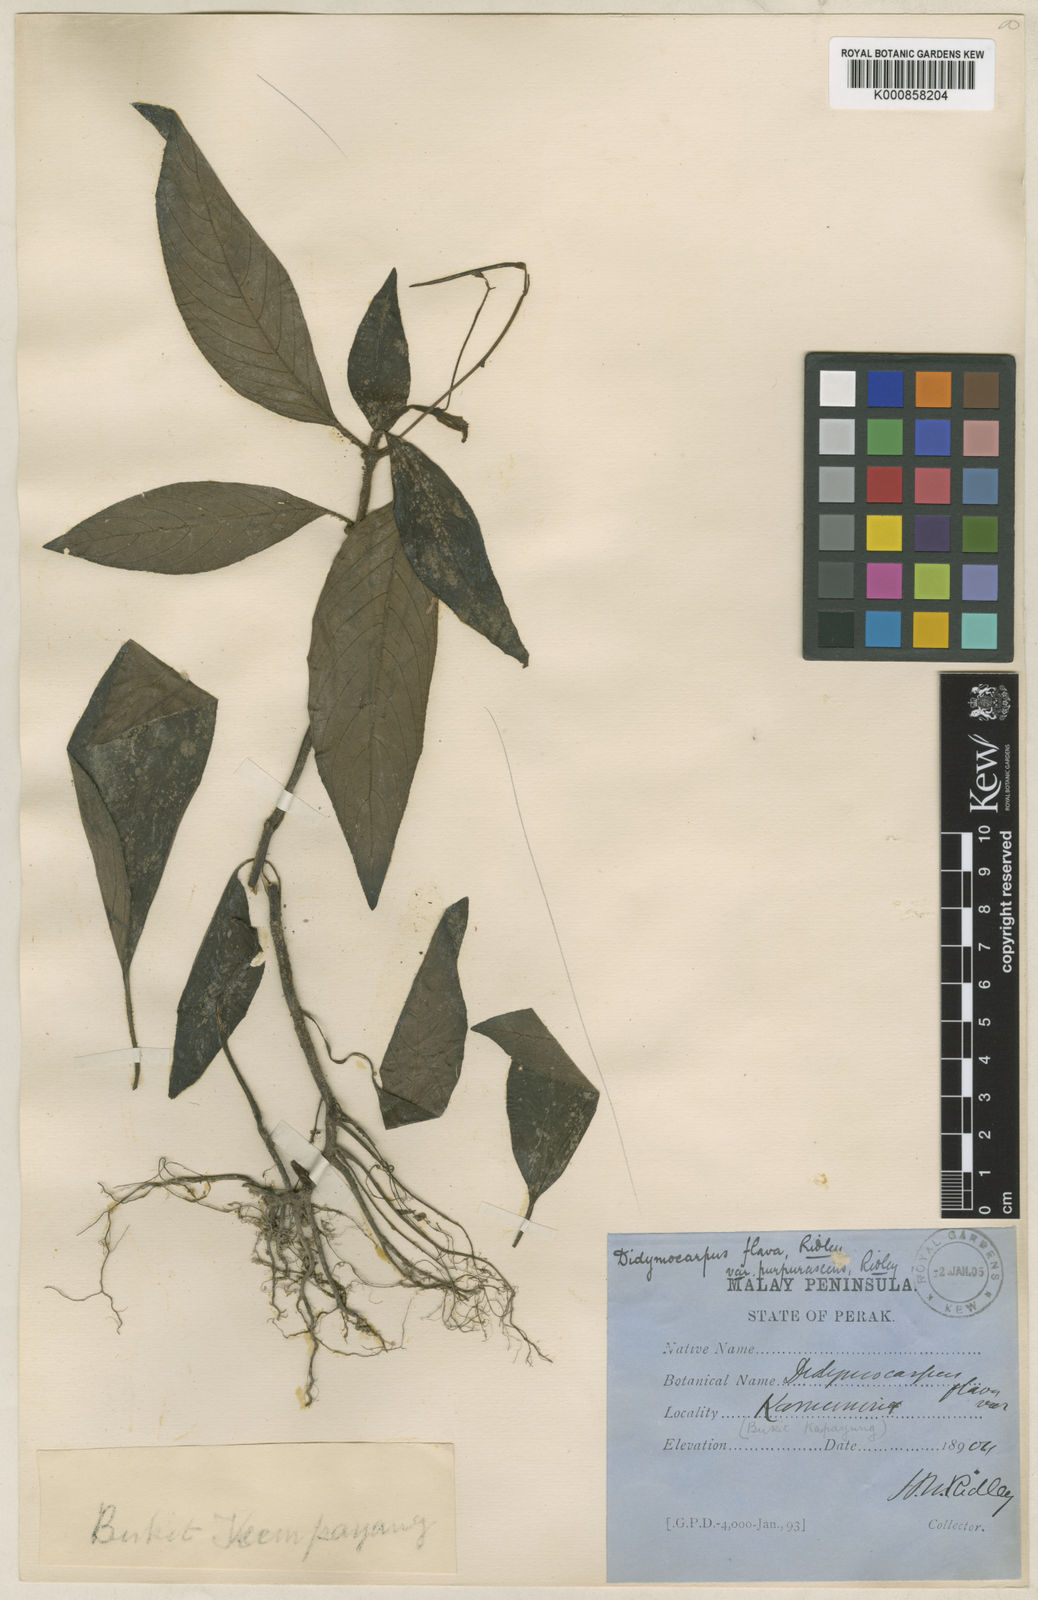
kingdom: Plantae
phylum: Tracheophyta
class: Magnoliopsida
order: Lamiales
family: Gesneriaceae
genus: Codonoboea
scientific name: Codonoboea flava
